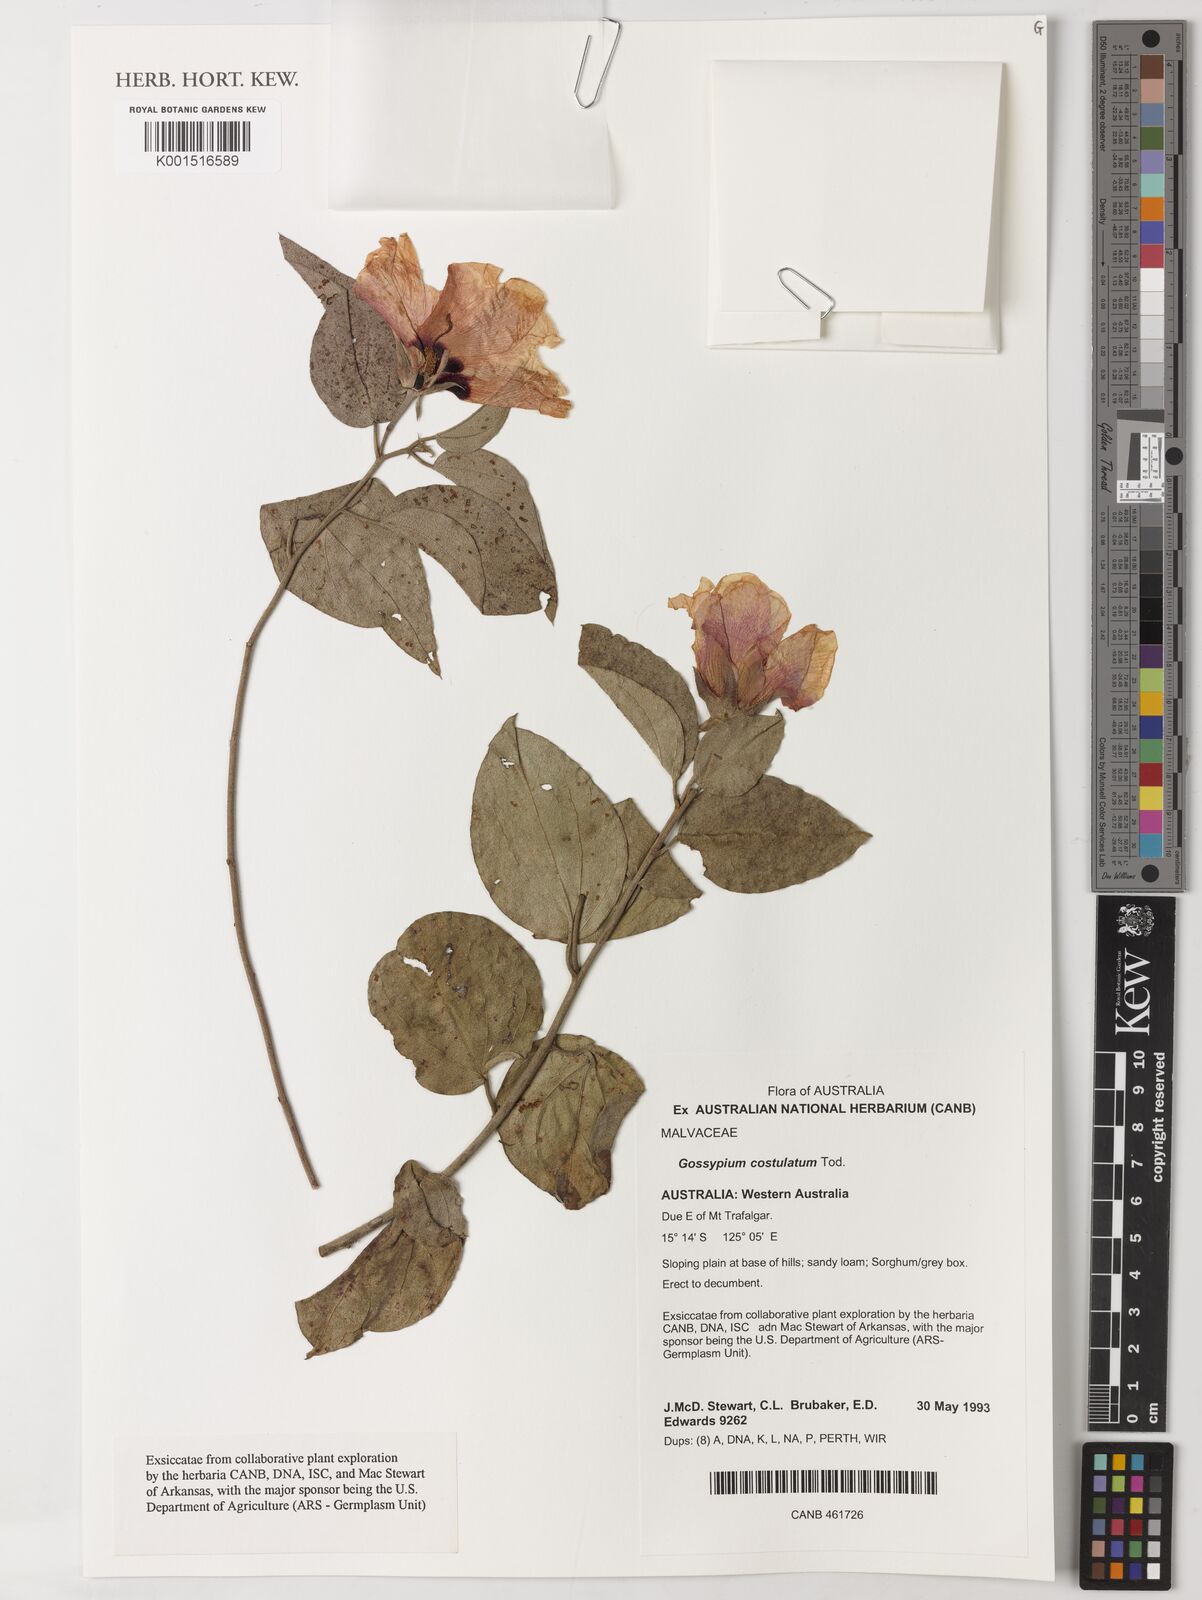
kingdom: Plantae
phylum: Tracheophyta
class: Magnoliopsida
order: Malvales
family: Malvaceae
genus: Gossypium
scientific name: Gossypium costulatum
